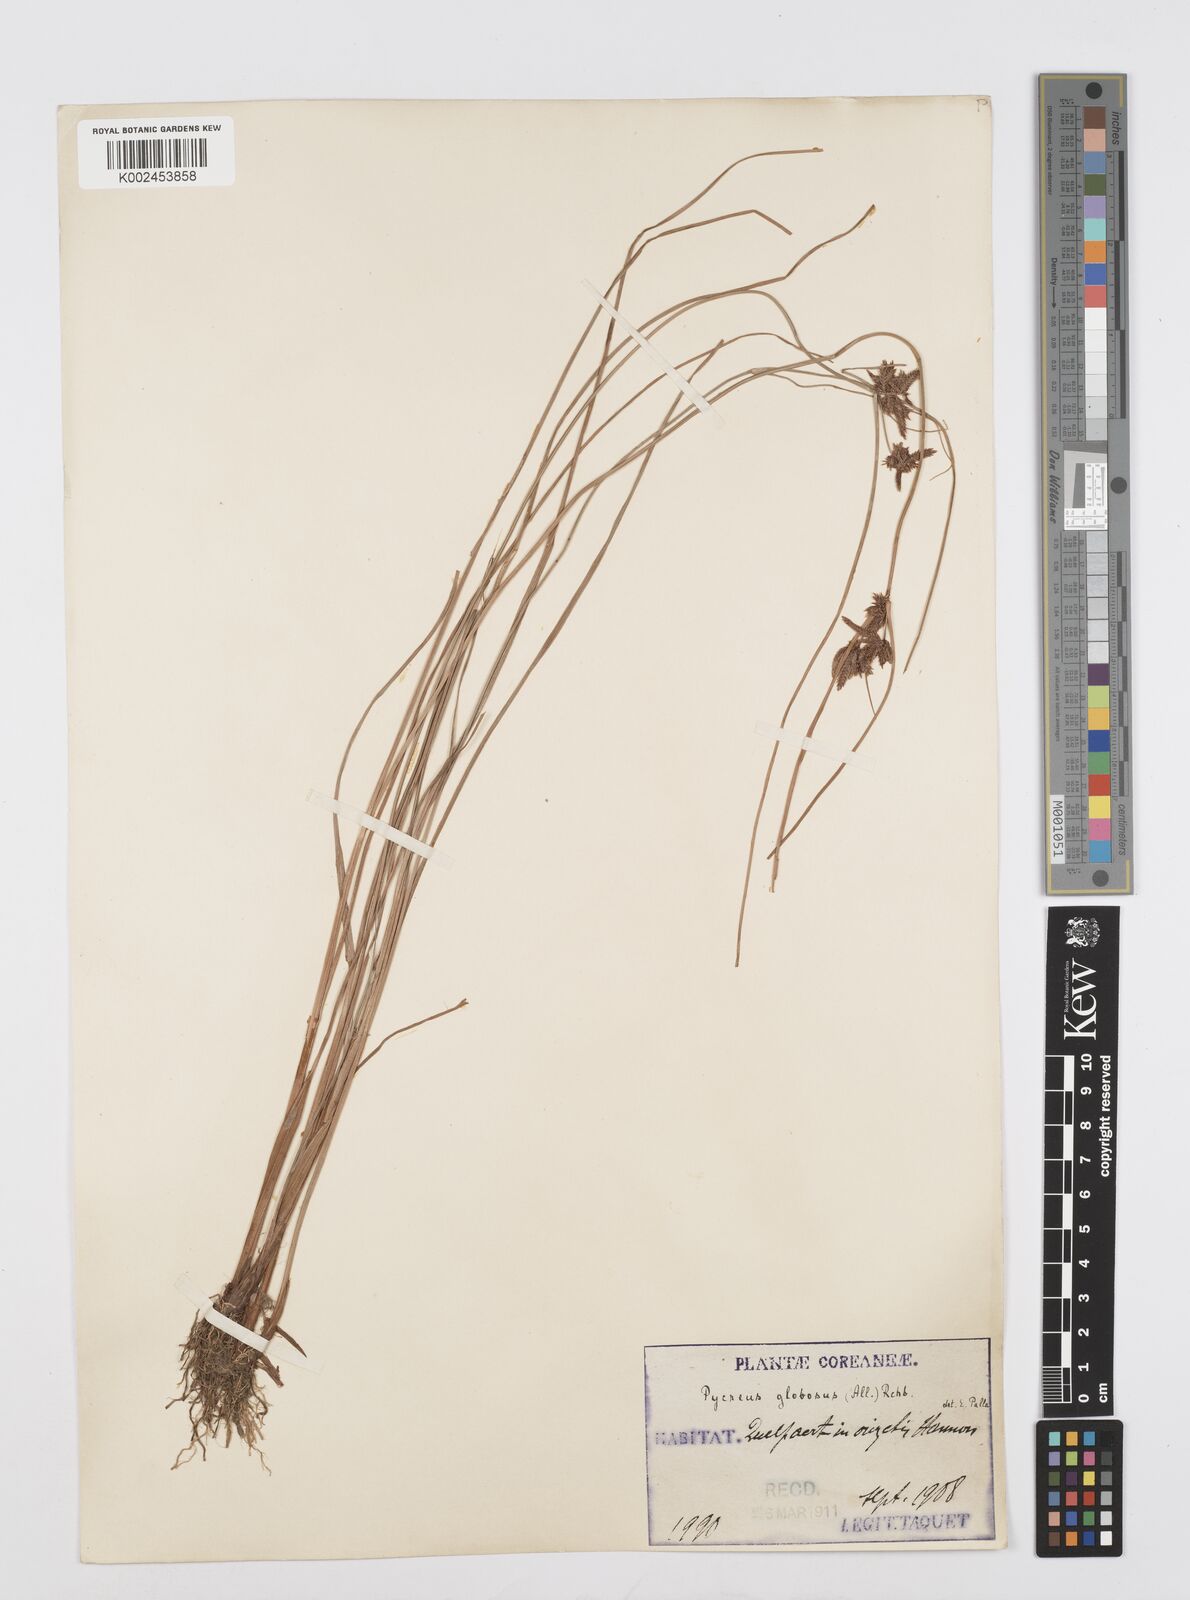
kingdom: Plantae
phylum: Tracheophyta
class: Liliopsida
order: Poales
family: Cyperaceae
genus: Cyperus
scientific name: Cyperus flavidus
